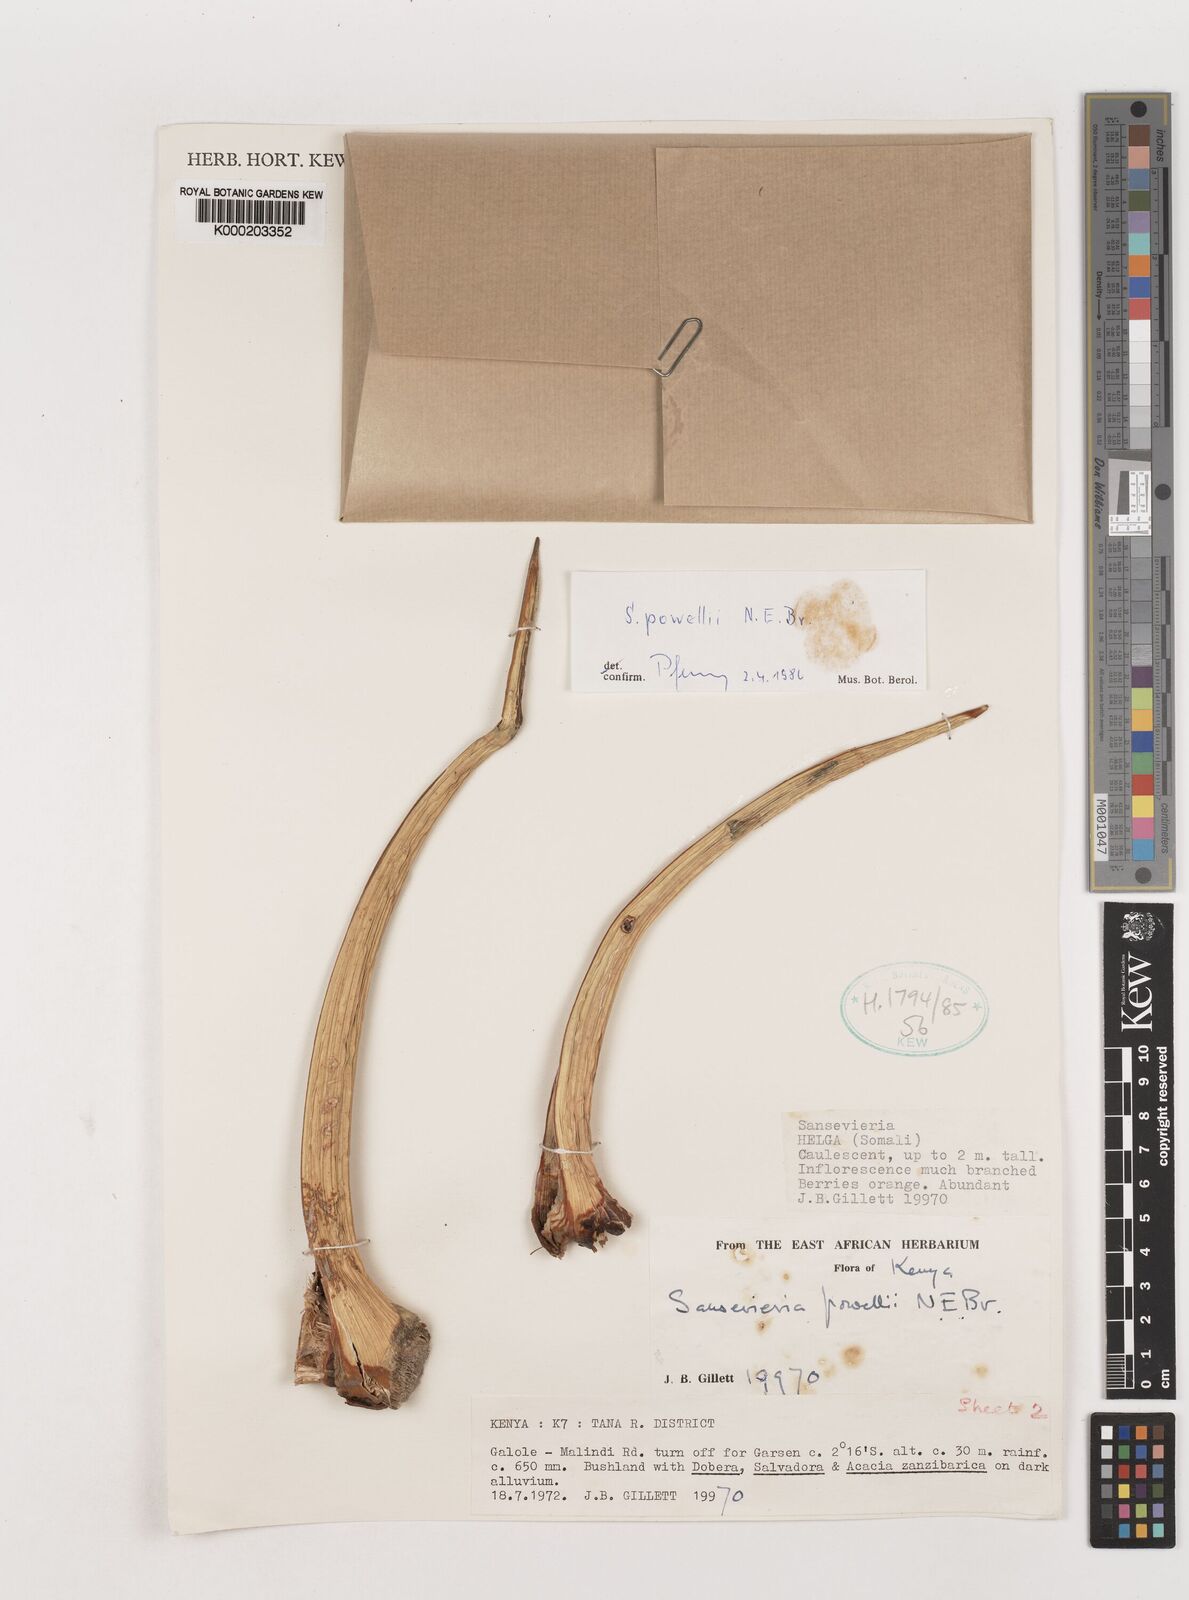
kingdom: Plantae
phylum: Tracheophyta
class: Liliopsida
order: Asparagales
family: Asparagaceae
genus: Dracaena
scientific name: Dracaena powellii
